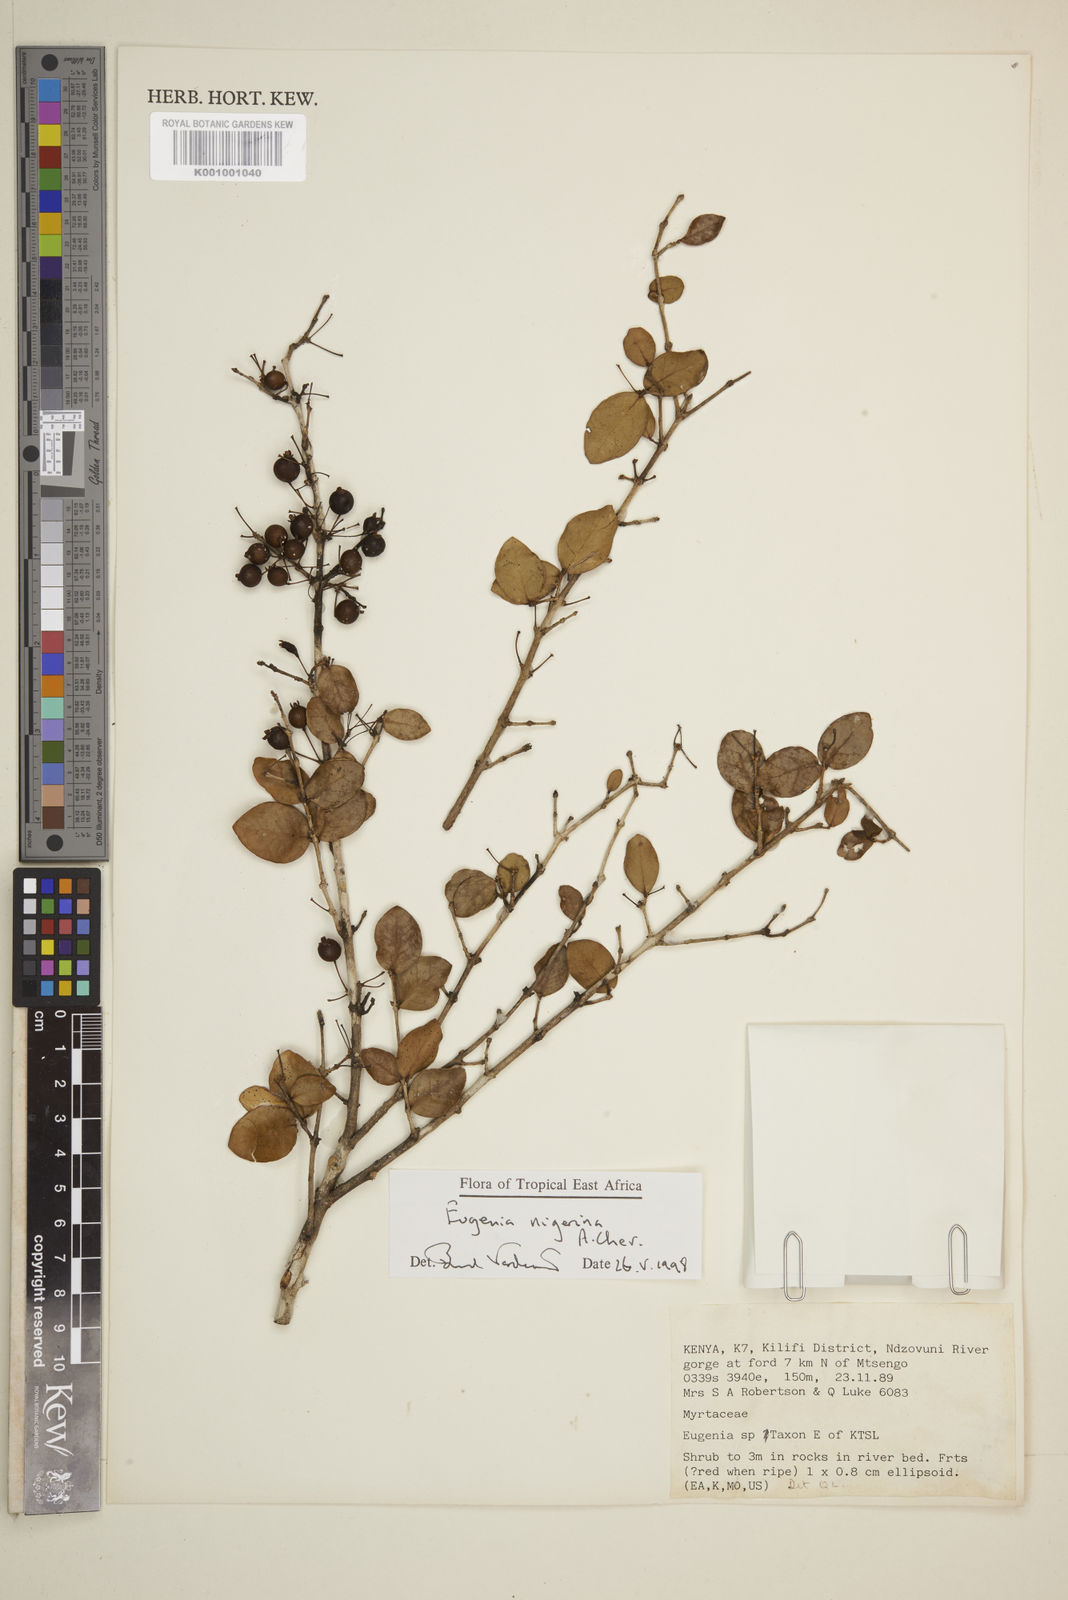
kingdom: Plantae
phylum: Tracheophyta
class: Magnoliopsida
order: Myrtales
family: Myrtaceae
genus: Eugenia
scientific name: Eugenia nigerina
